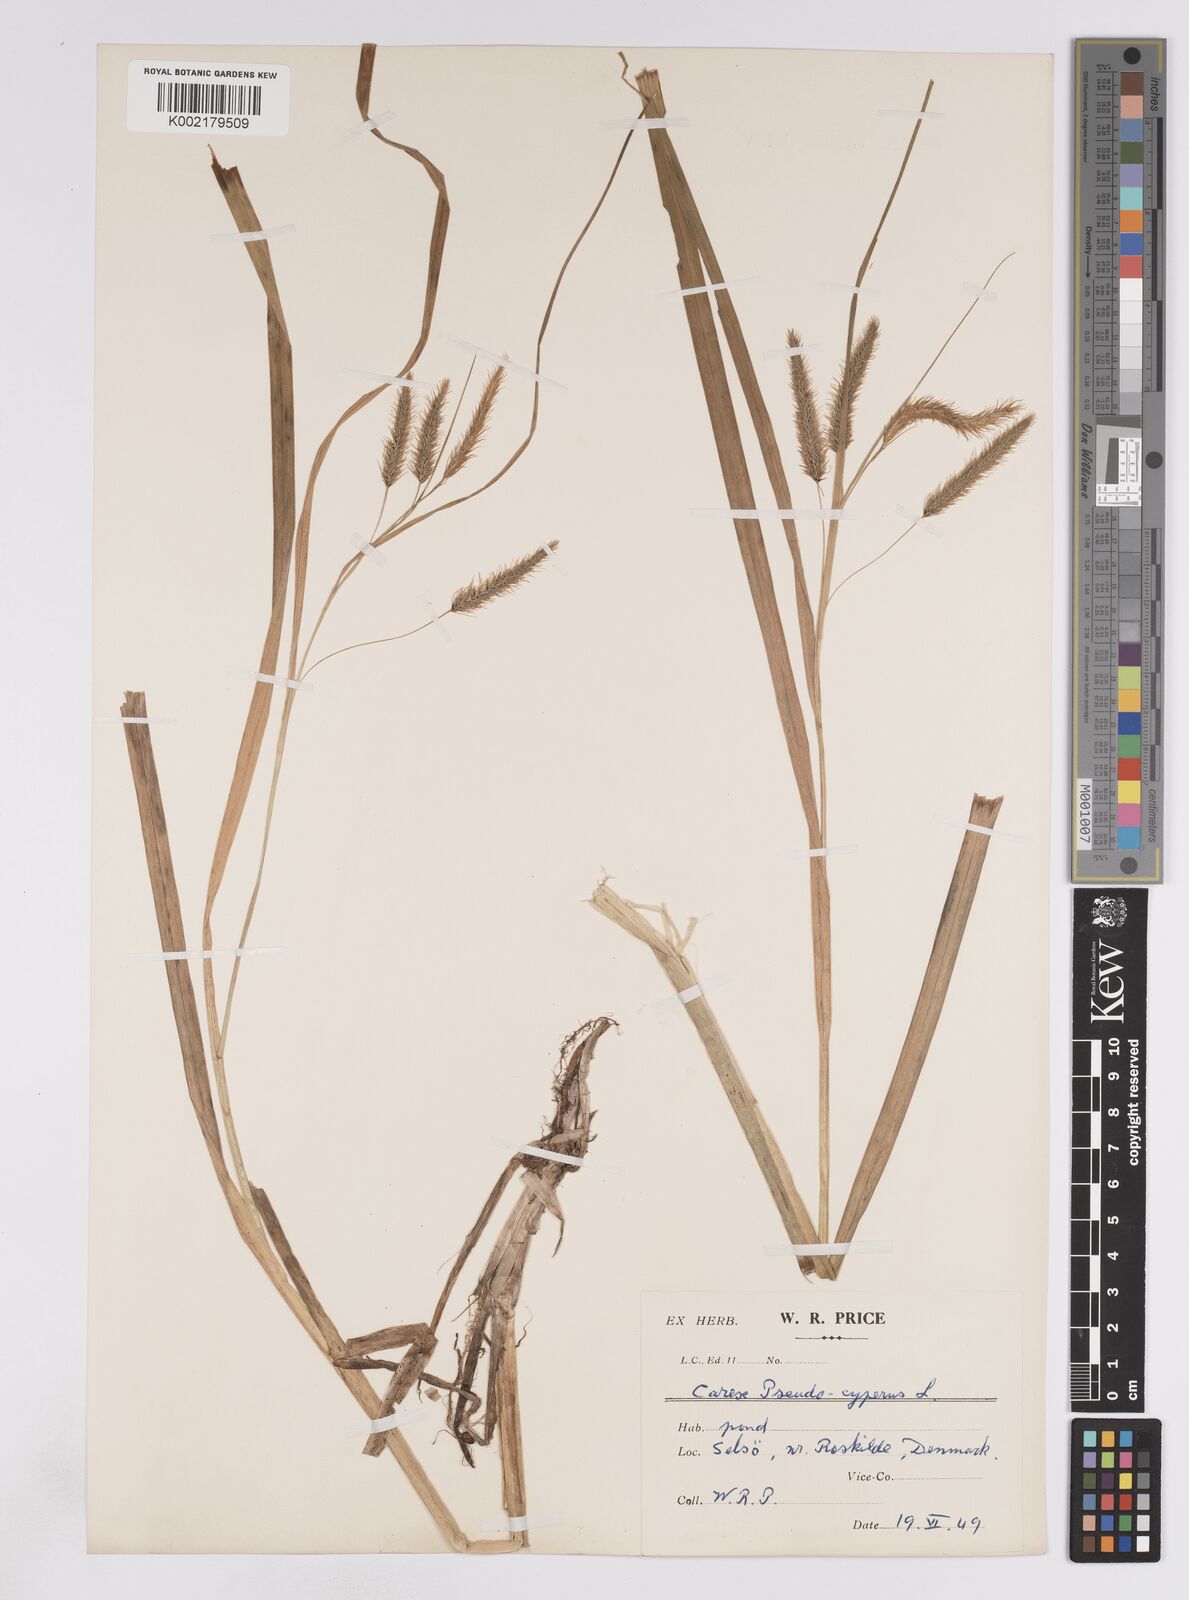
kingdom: Plantae
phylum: Tracheophyta
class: Liliopsida
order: Poales
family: Cyperaceae
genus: Carex
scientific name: Carex pseudocyperus
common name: Cyperus sedge
